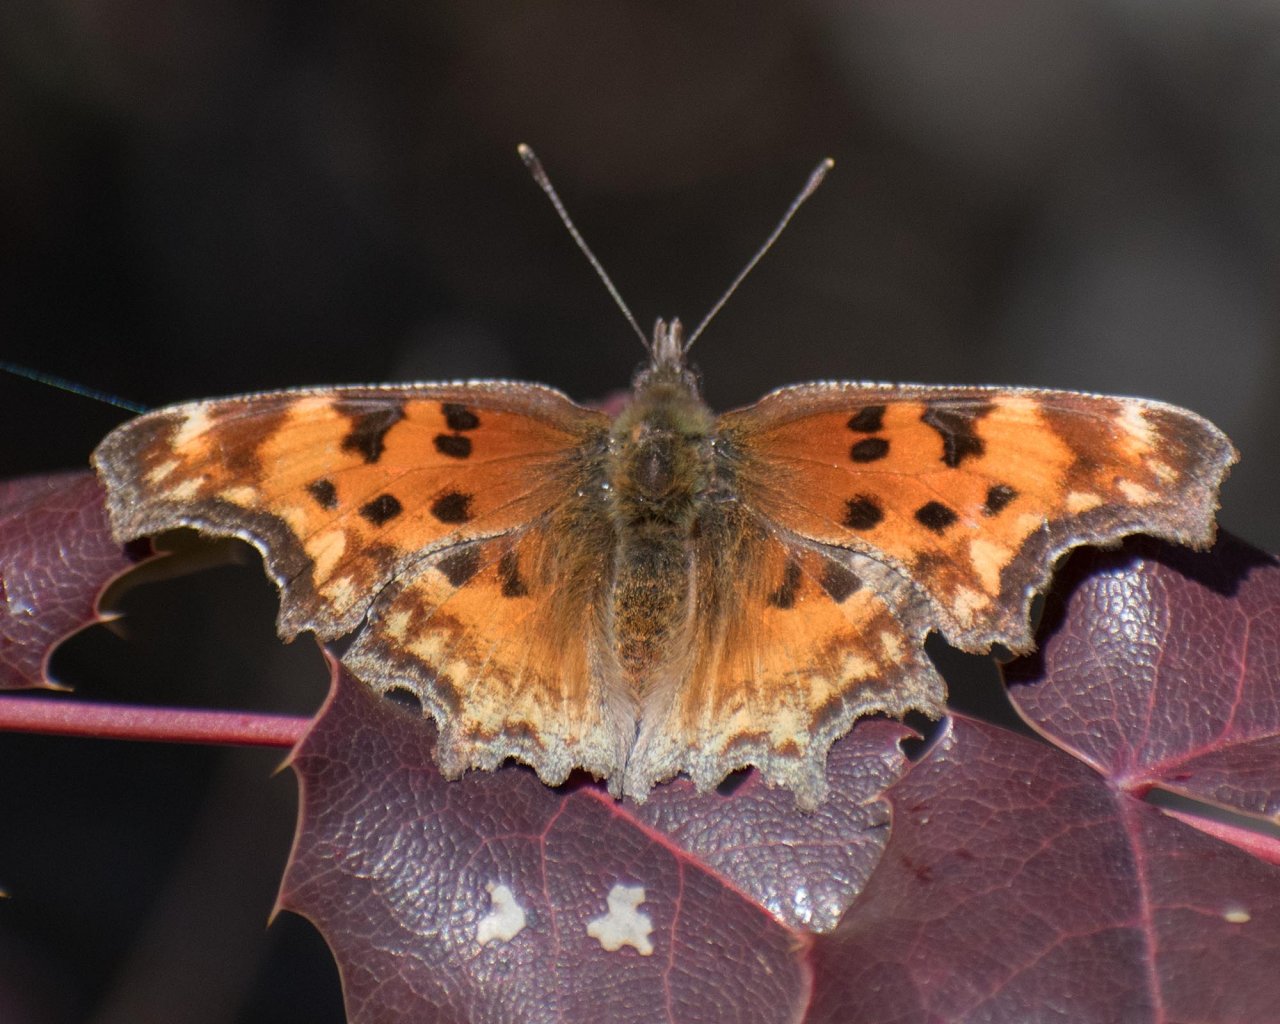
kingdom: Animalia
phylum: Arthropoda
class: Insecta
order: Lepidoptera
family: Nymphalidae
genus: Polygonia
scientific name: Polygonia gracilis
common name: Hoary Comma
